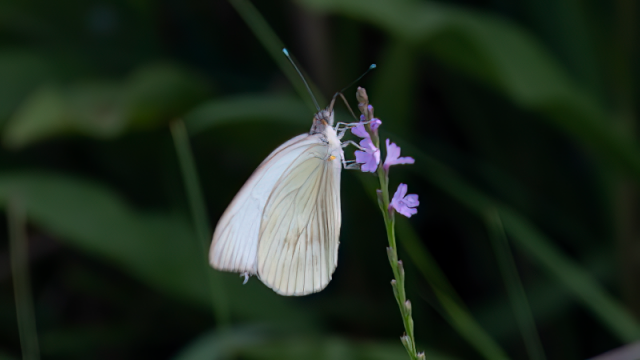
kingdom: Animalia
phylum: Arthropoda
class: Insecta
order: Lepidoptera
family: Pieridae
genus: Ascia
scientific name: Ascia monuste
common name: Great Southern White
